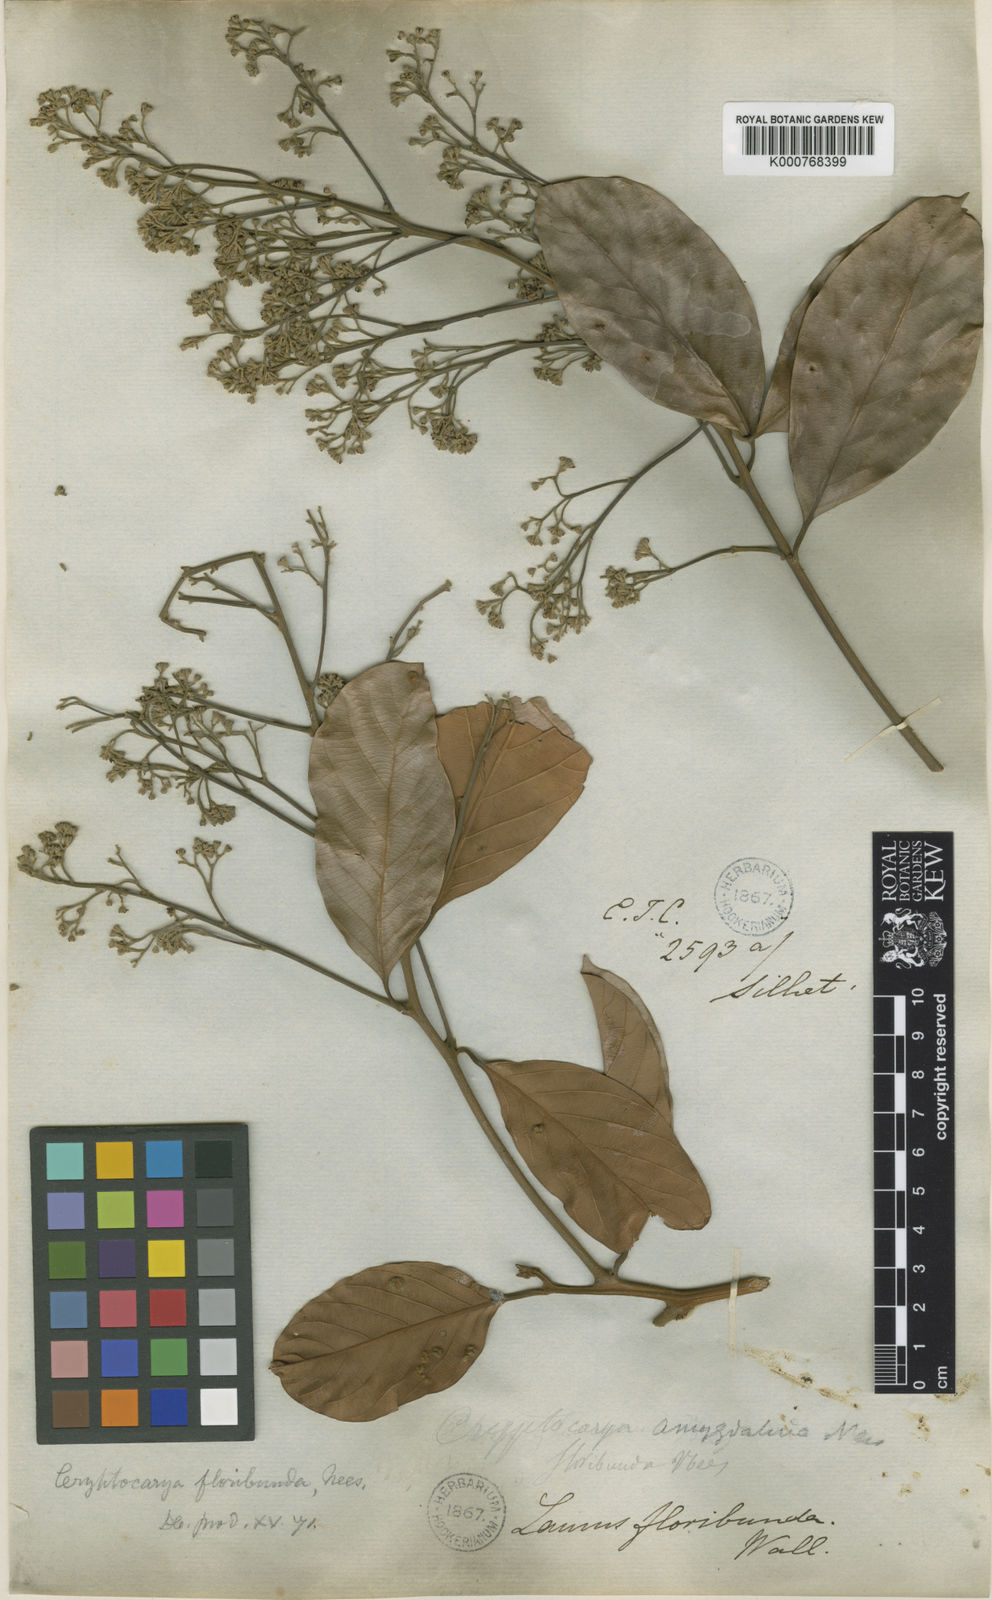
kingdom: Plantae
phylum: Tracheophyta
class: Magnoliopsida
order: Laurales
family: Lauraceae
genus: Cryptocarya
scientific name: Cryptocarya amygdalina
